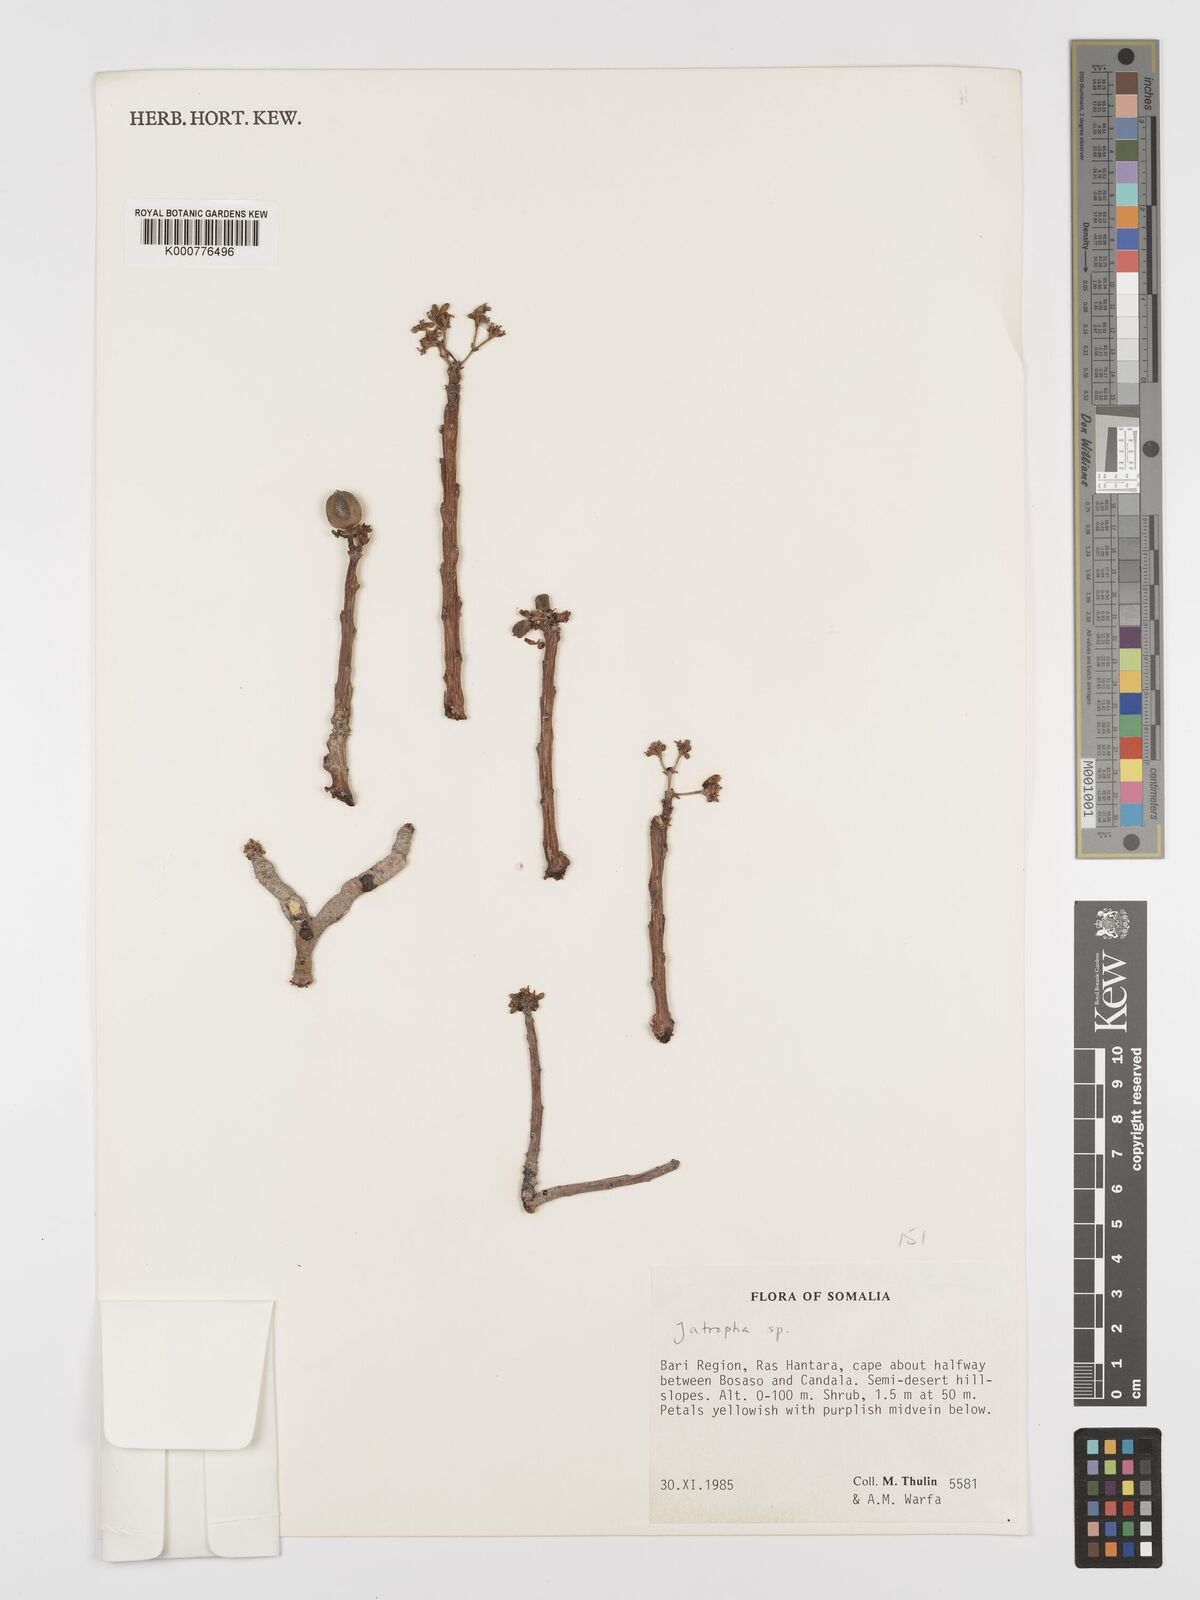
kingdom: Plantae
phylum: Tracheophyta
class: Magnoliopsida
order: Malpighiales
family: Euphorbiaceae
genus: Jatropha
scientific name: Jatropha robecchii
